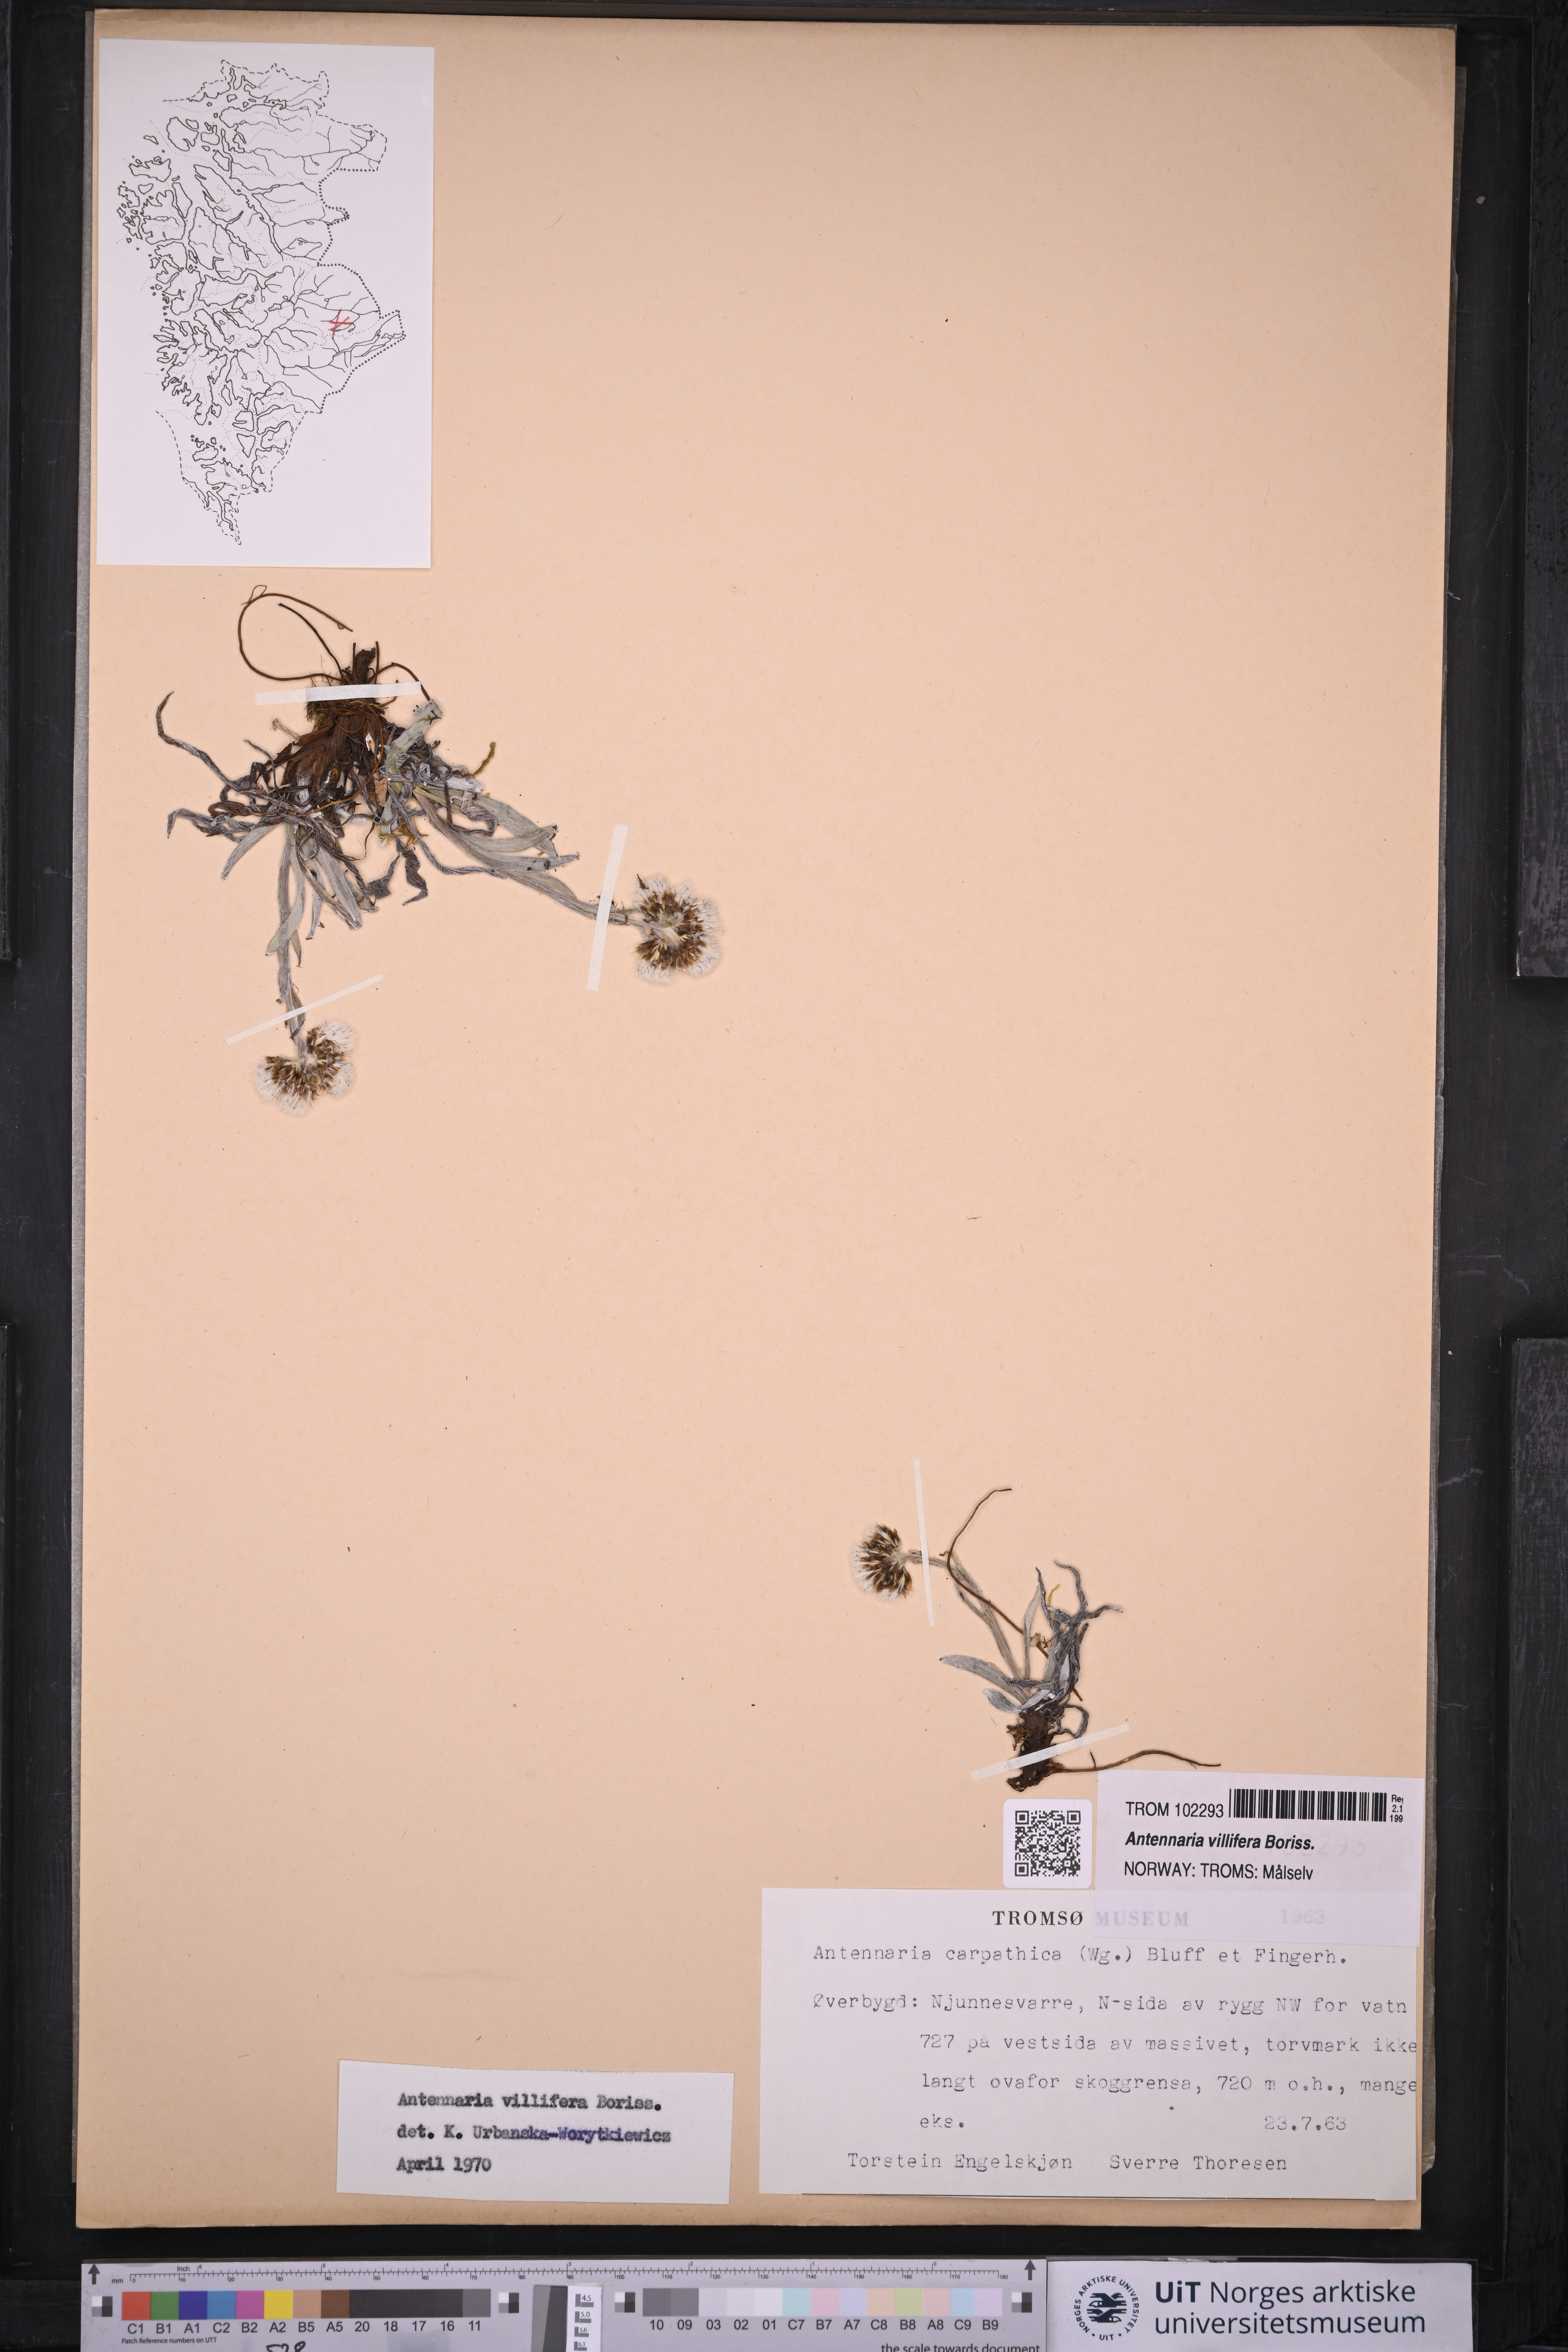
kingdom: Plantae
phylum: Tracheophyta
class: Magnoliopsida
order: Asterales
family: Asteraceae
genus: Antennaria
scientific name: Antennaria lanata
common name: Woolly pussytoes
